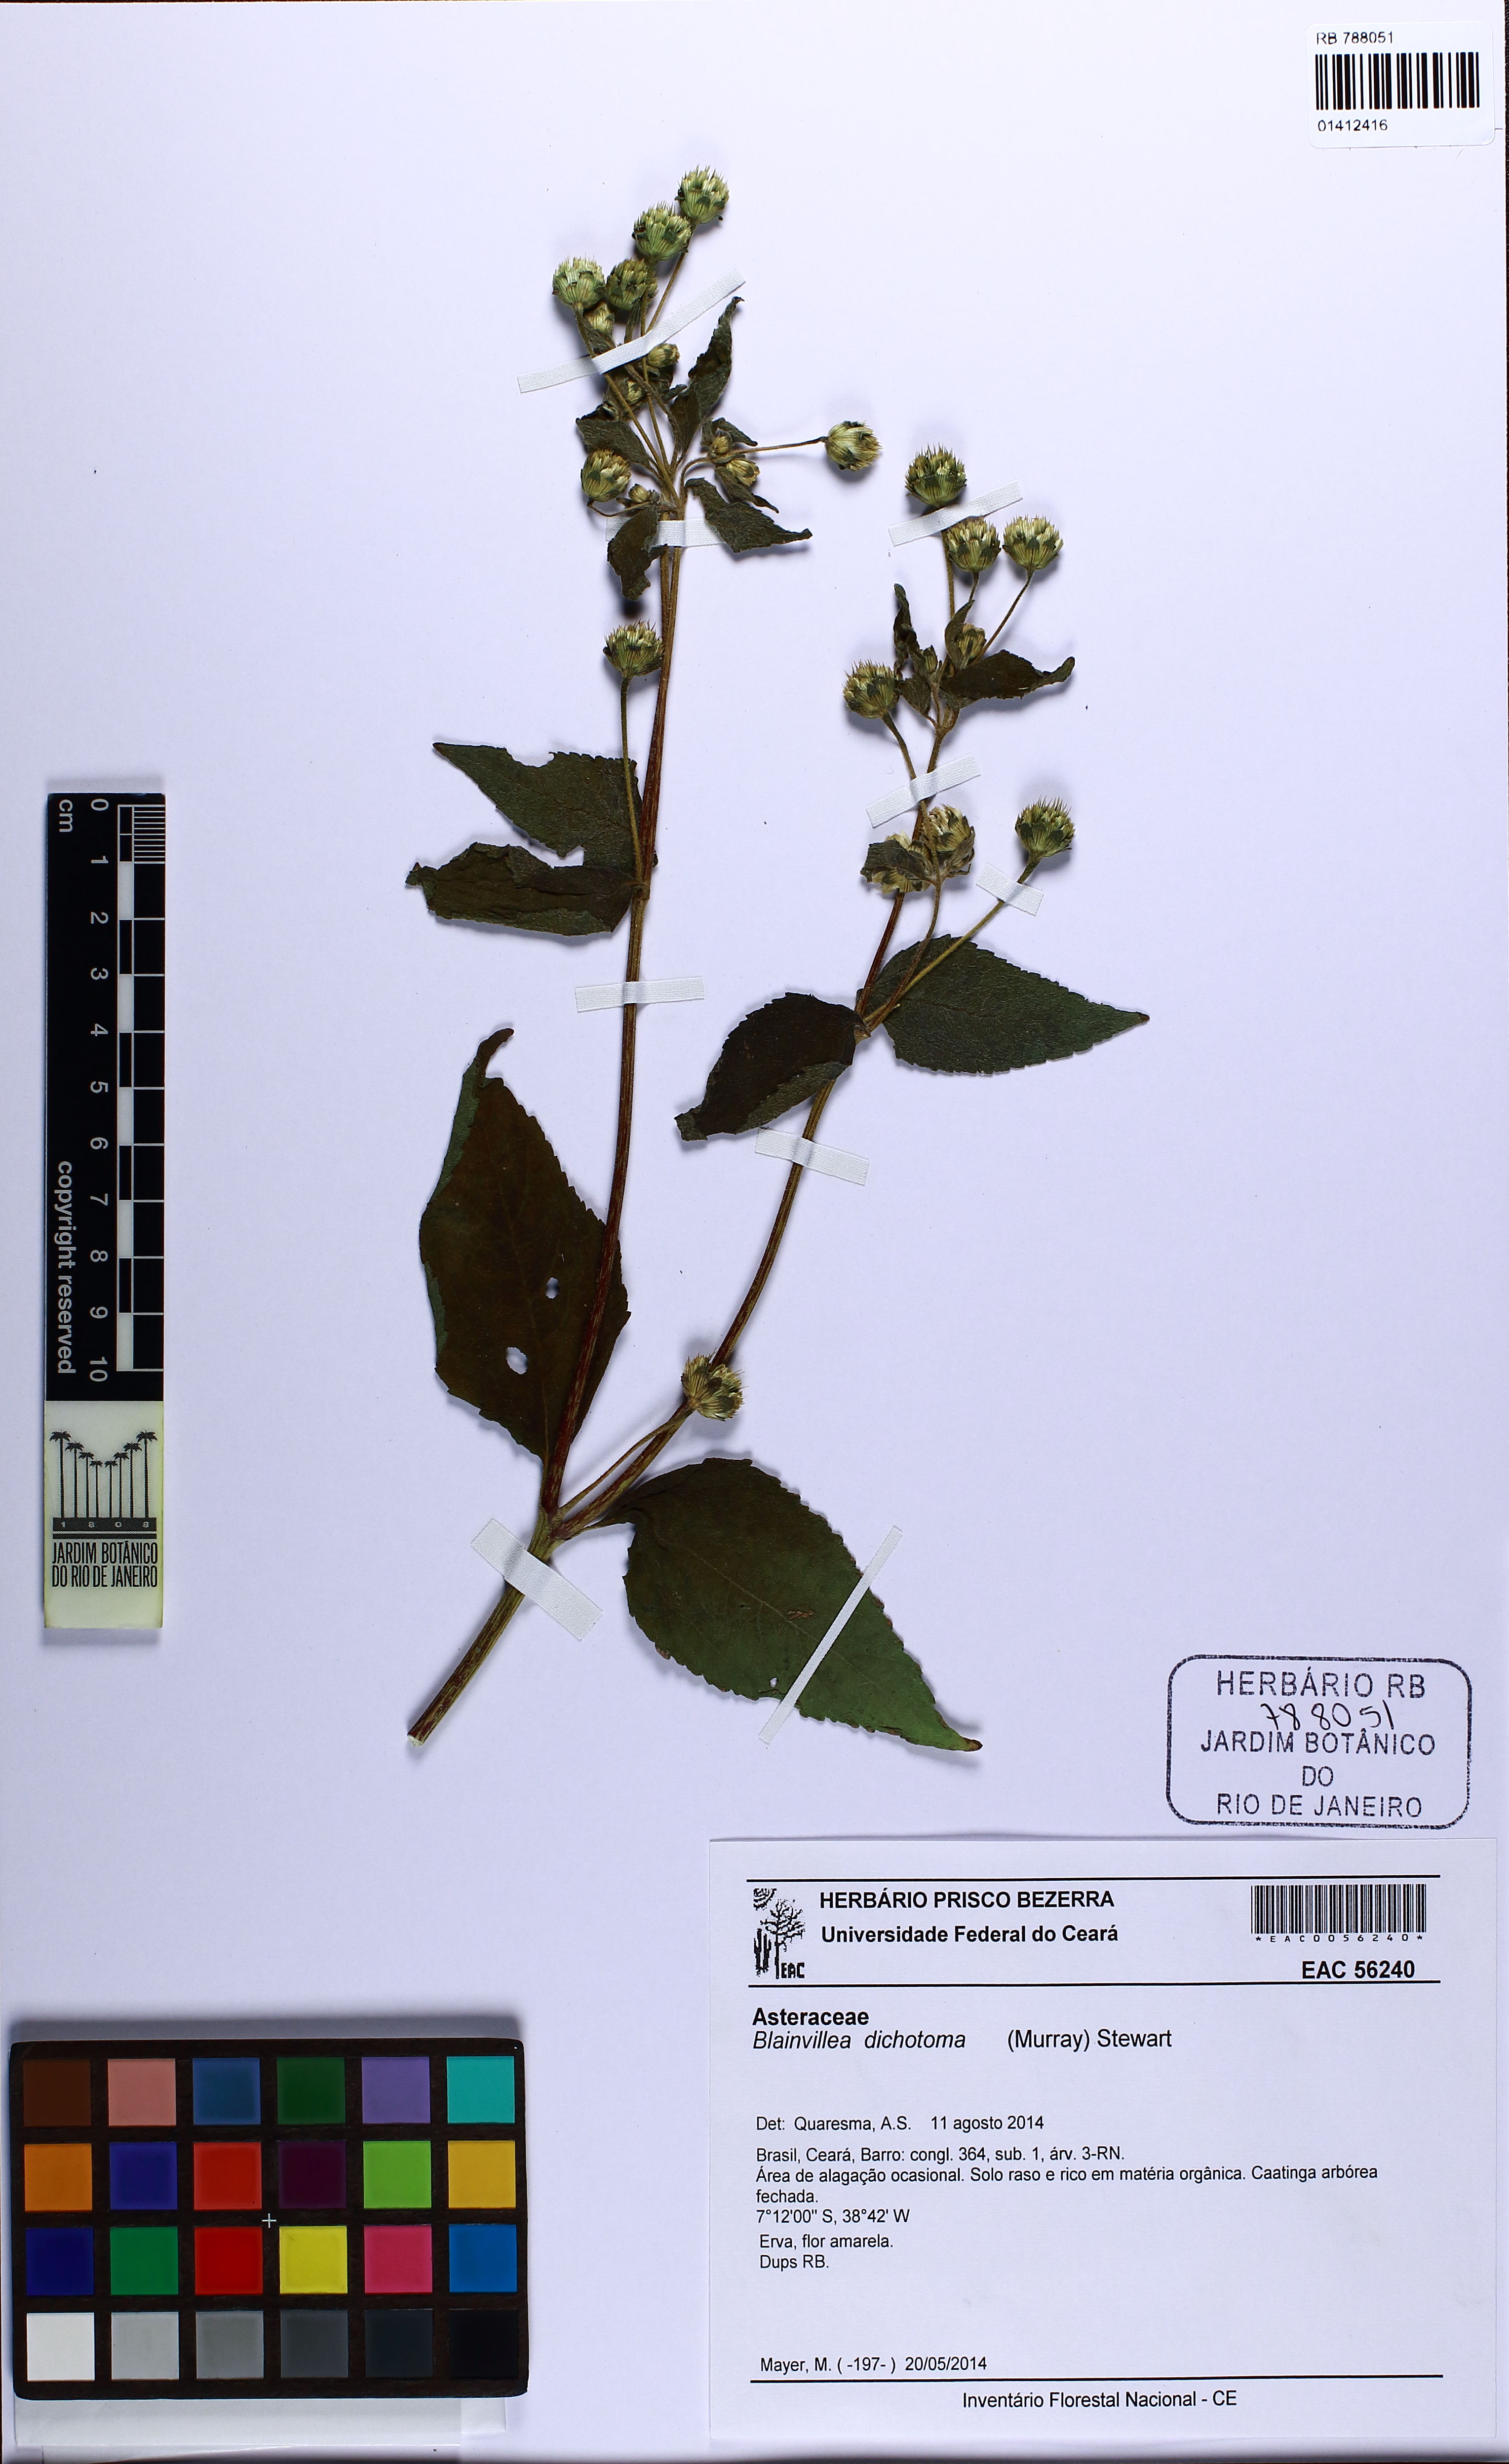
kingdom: Plantae
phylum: Tracheophyta
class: Magnoliopsida
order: Asterales
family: Asteraceae
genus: Blainvillea
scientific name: Blainvillea dichotoma
